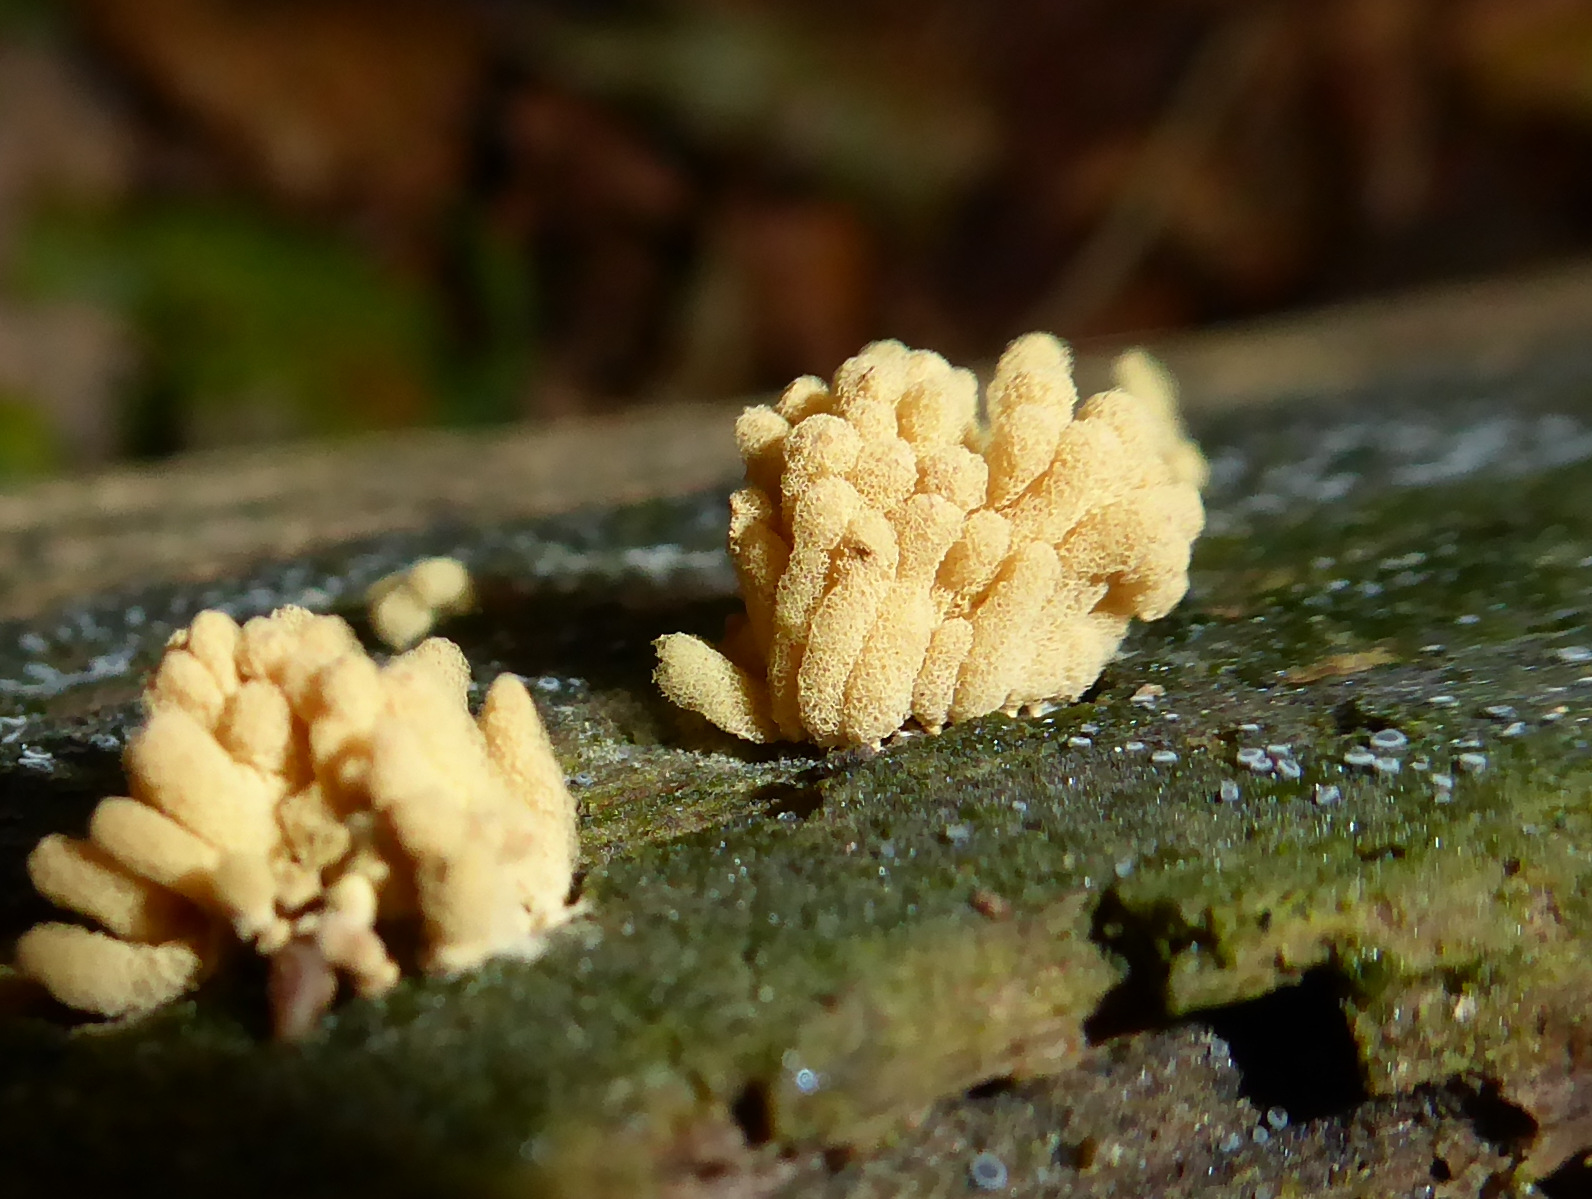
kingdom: Protozoa
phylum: Mycetozoa
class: Myxomycetes
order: Trichiales
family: Arcyriaceae
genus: Arcyria
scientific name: Arcyria obvelata
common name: okkergul skålsvøb
